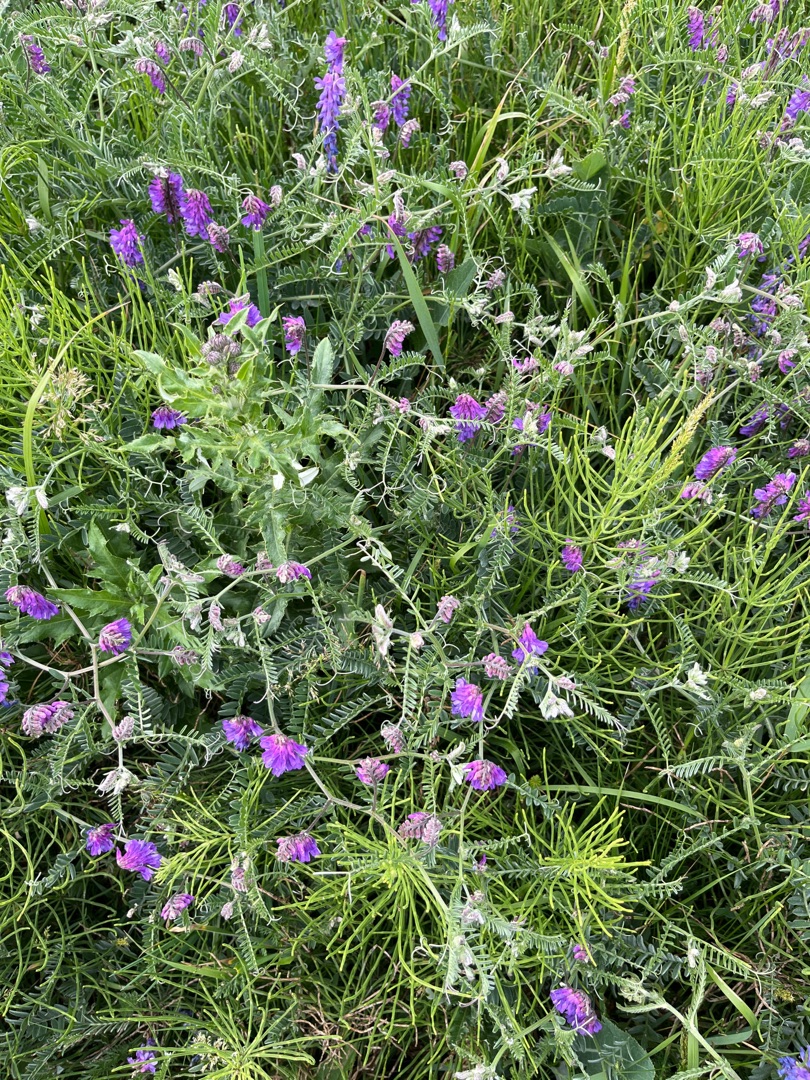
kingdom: Plantae
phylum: Tracheophyta
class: Magnoliopsida
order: Fabales
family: Fabaceae
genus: Vicia
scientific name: Vicia cracca
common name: Muse-vikke
